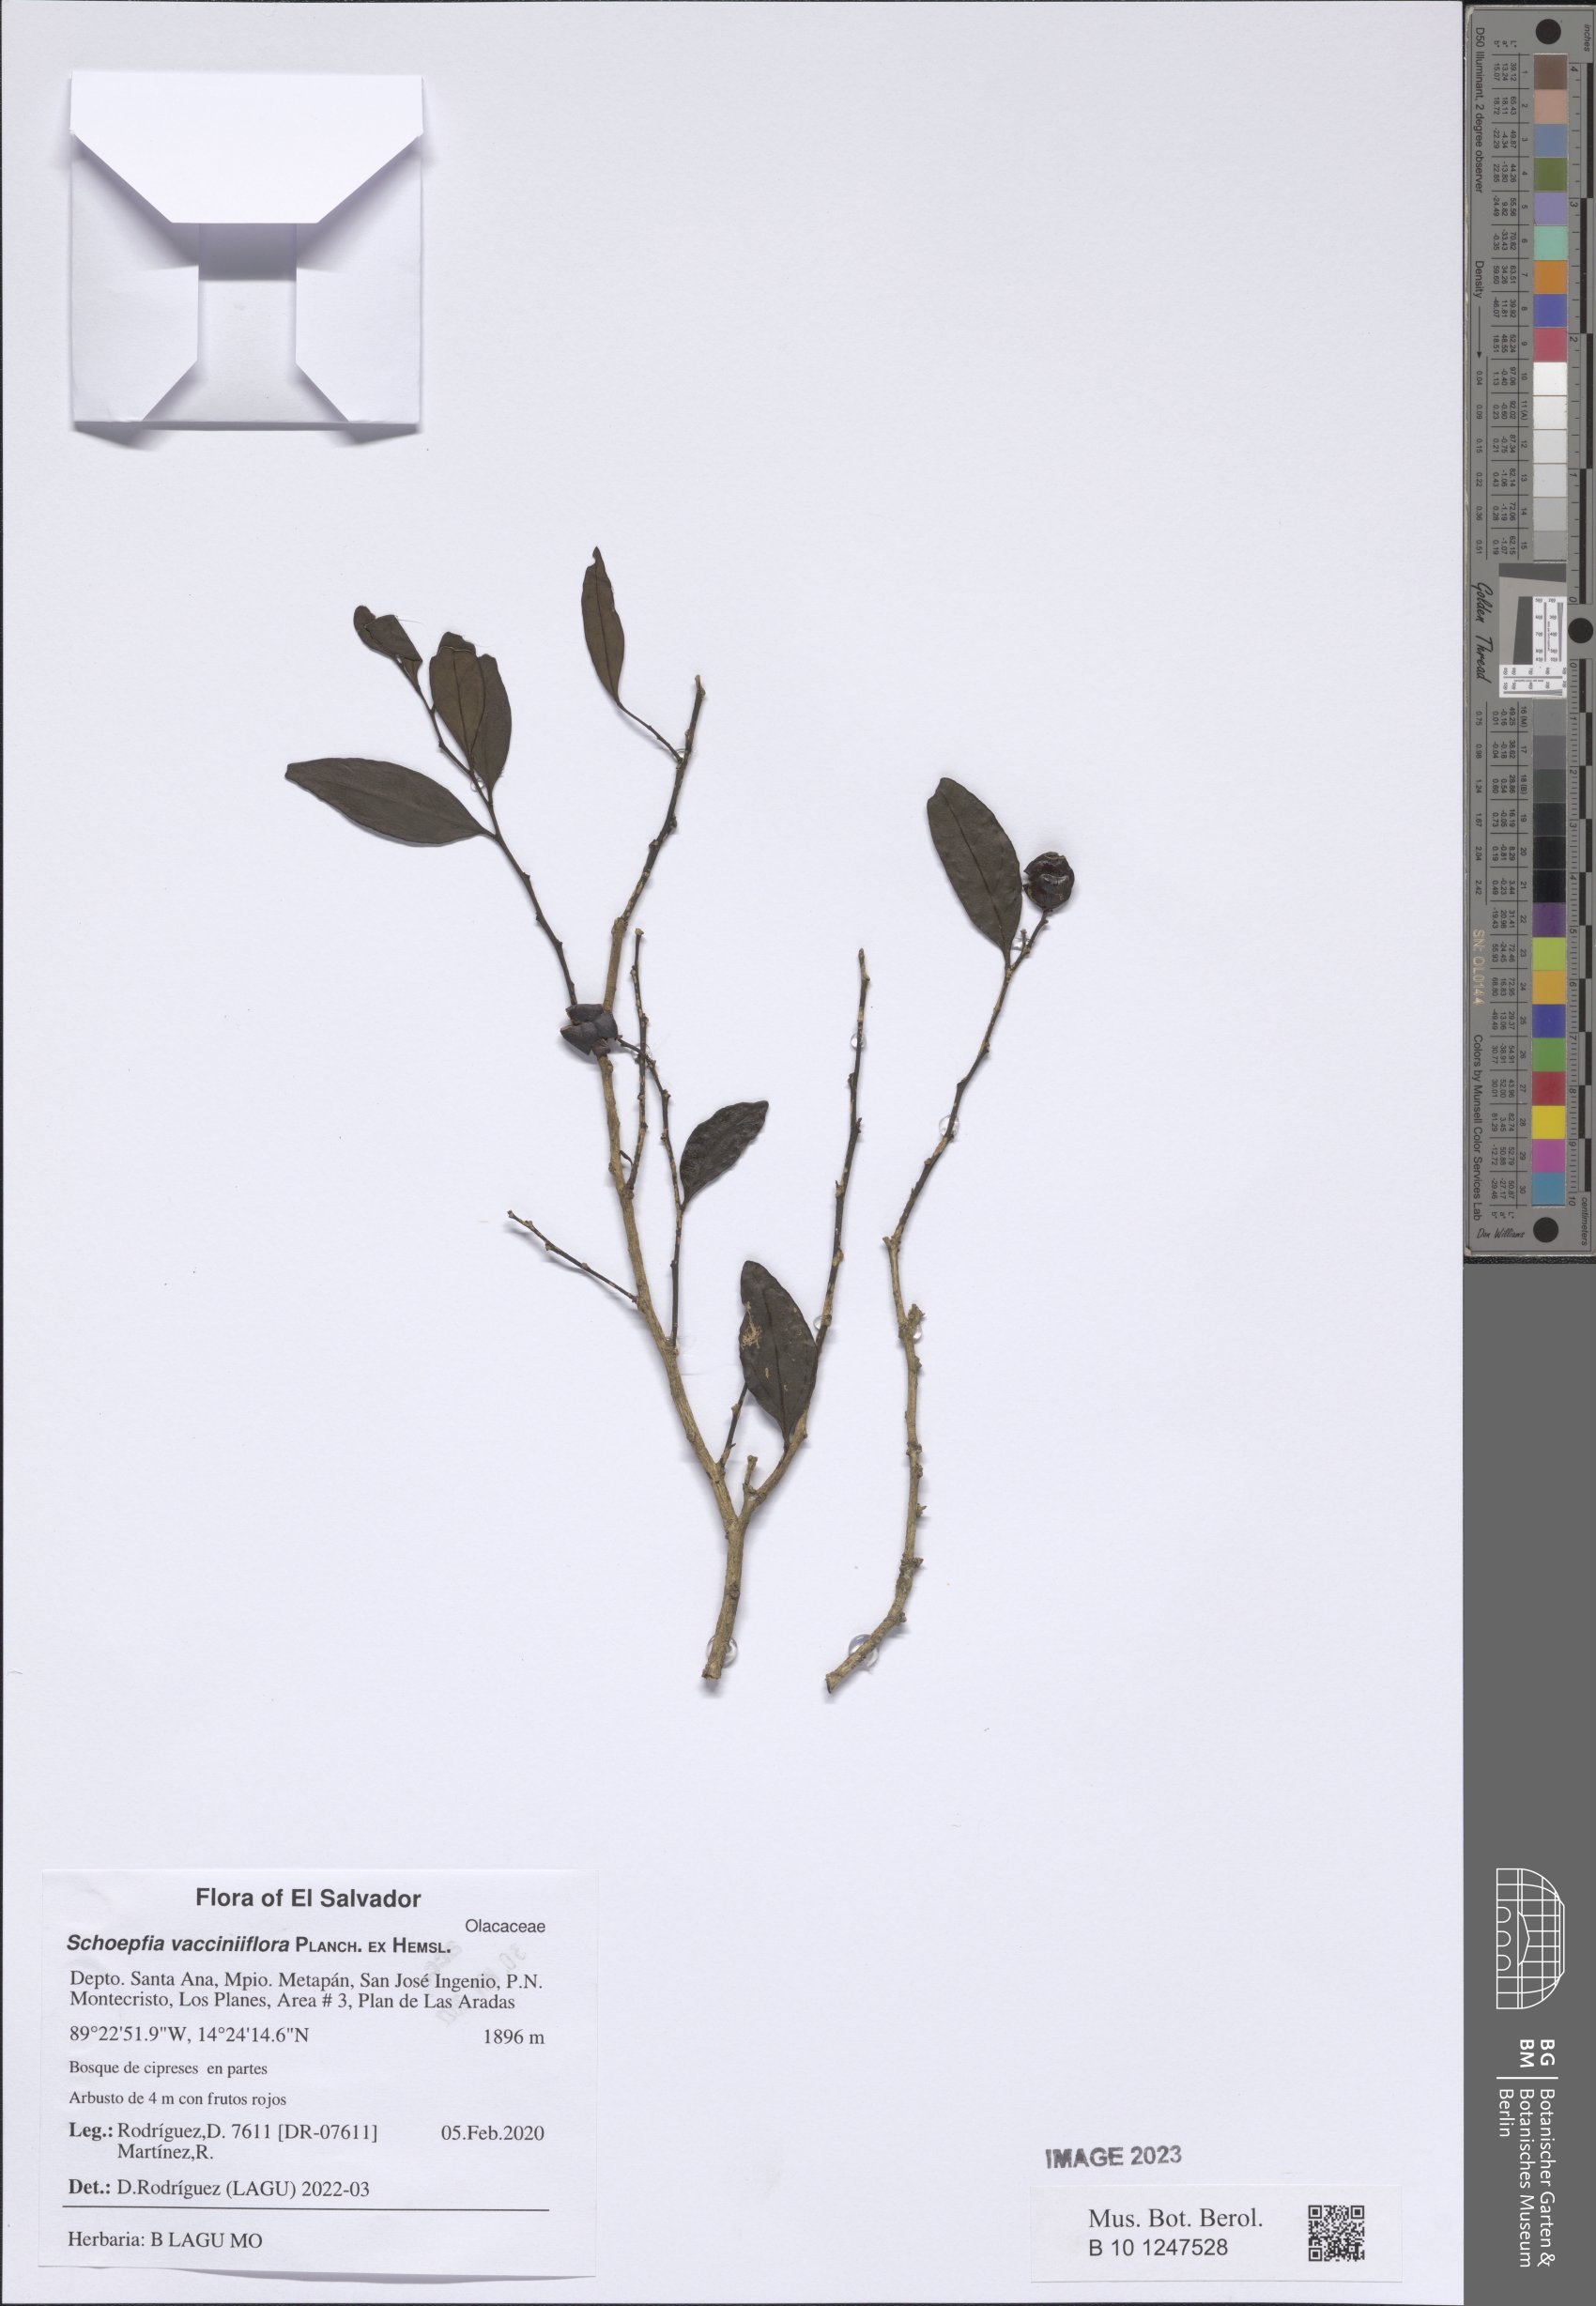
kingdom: Plantae
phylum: Tracheophyta
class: Magnoliopsida
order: Santalales
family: Schoepfiaceae
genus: Schoepfia
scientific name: Schoepfia vacciniiflora
